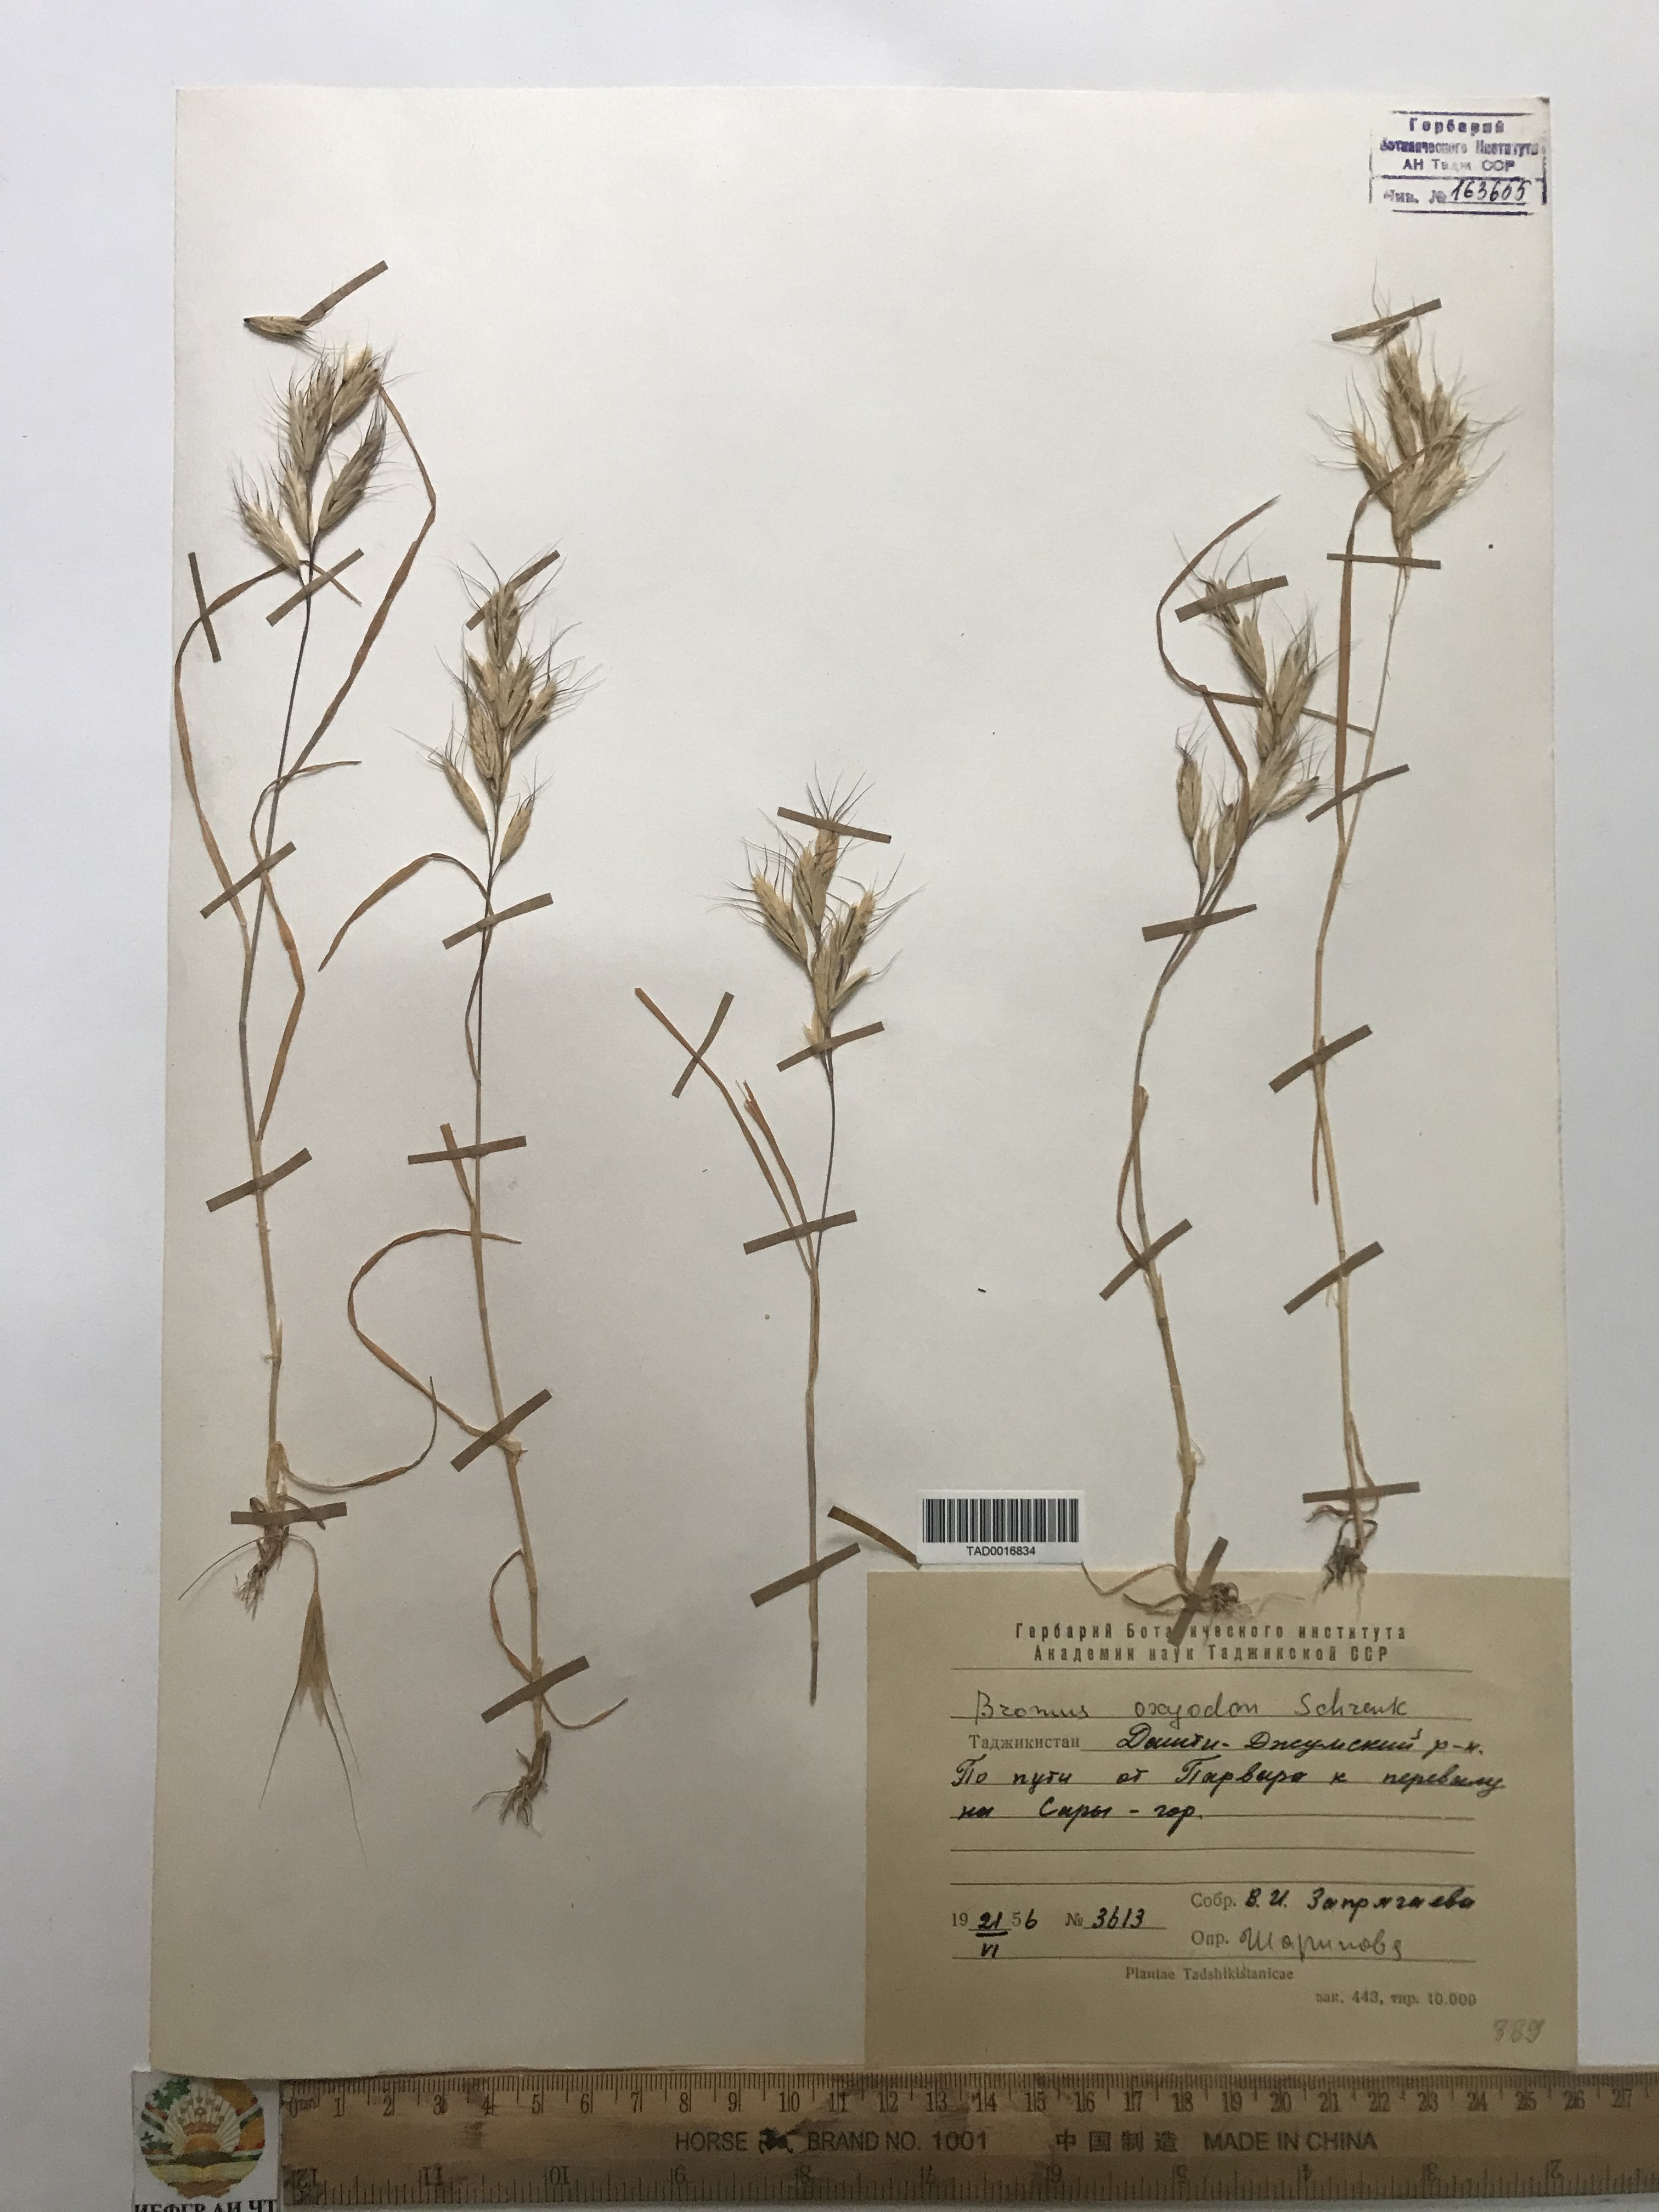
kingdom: Plantae
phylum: Tracheophyta
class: Liliopsida
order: Poales
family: Poaceae
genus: Bromus
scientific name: Bromus oxyodon
